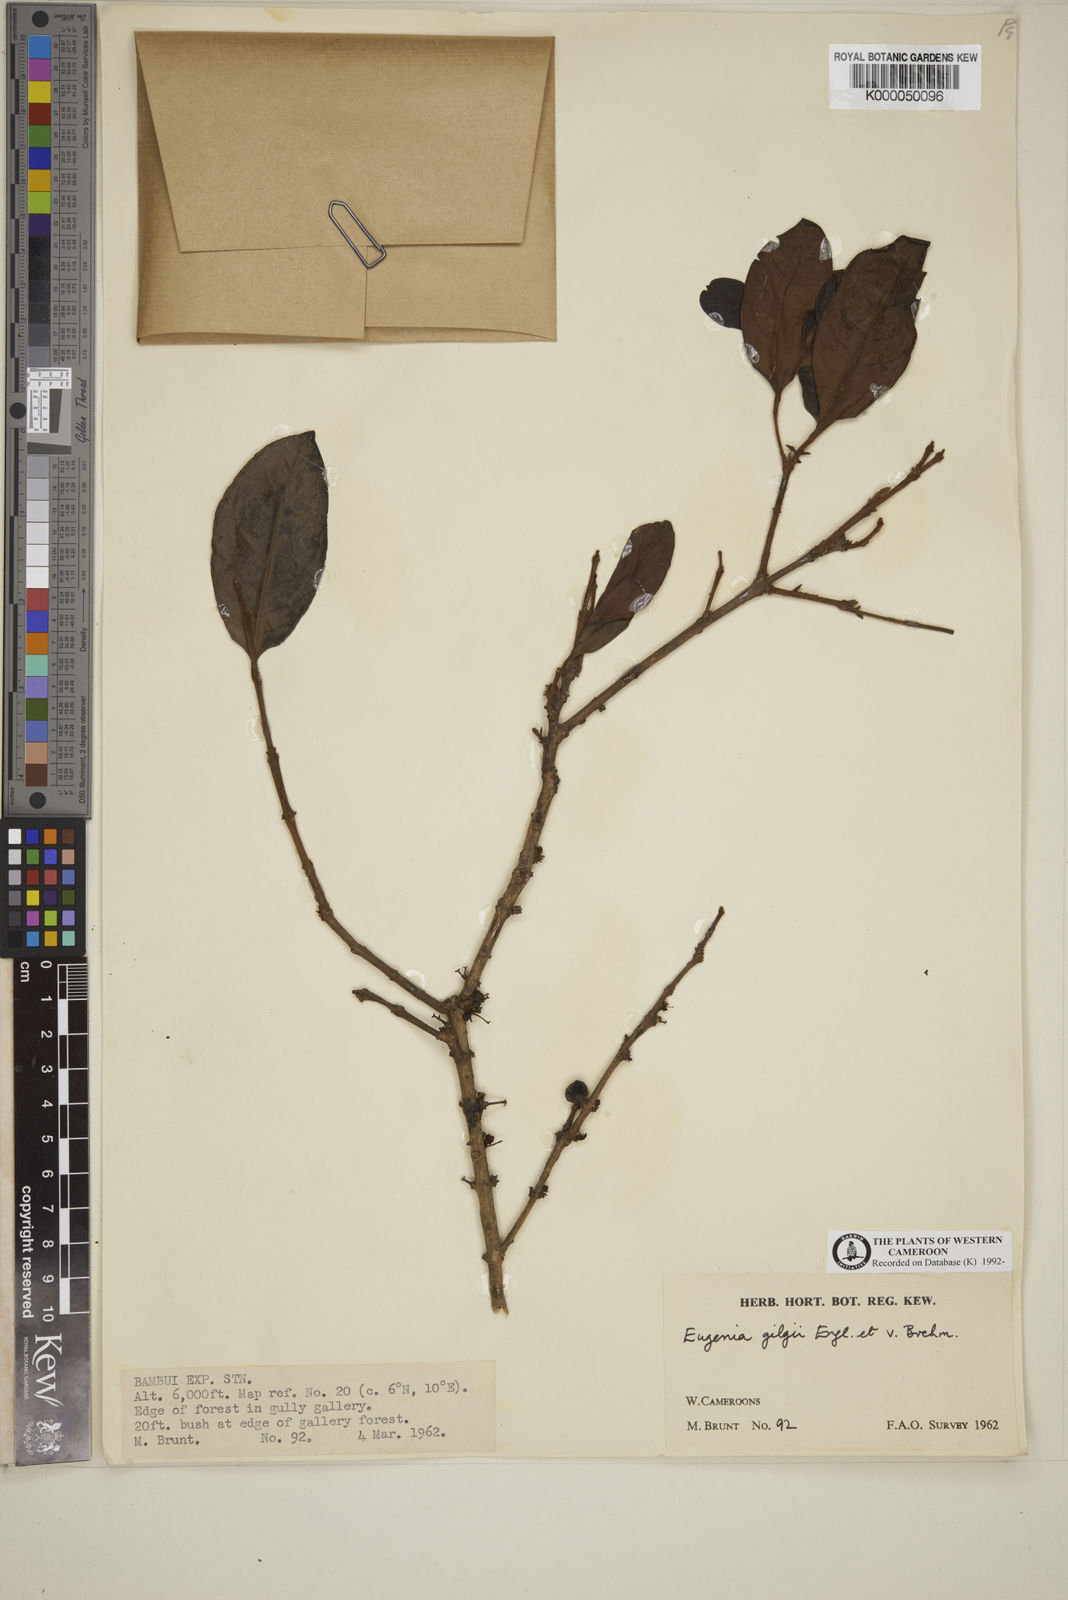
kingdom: Plantae
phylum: Tracheophyta
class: Magnoliopsida
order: Myrtales
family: Myrtaceae
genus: Eugenia
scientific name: Eugenia gilgii
